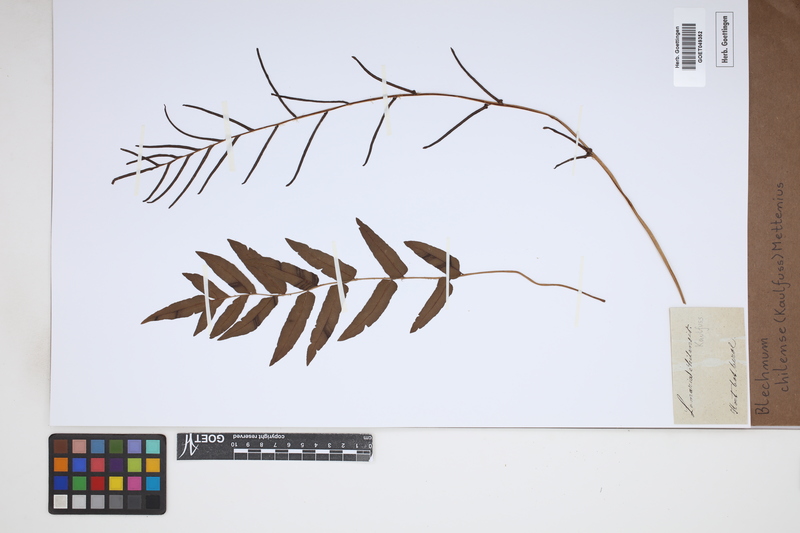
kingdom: Plantae
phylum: Tracheophyta
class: Polypodiopsida
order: Polypodiales
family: Blechnaceae
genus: Parablechnum
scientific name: Parablechnum chilense
